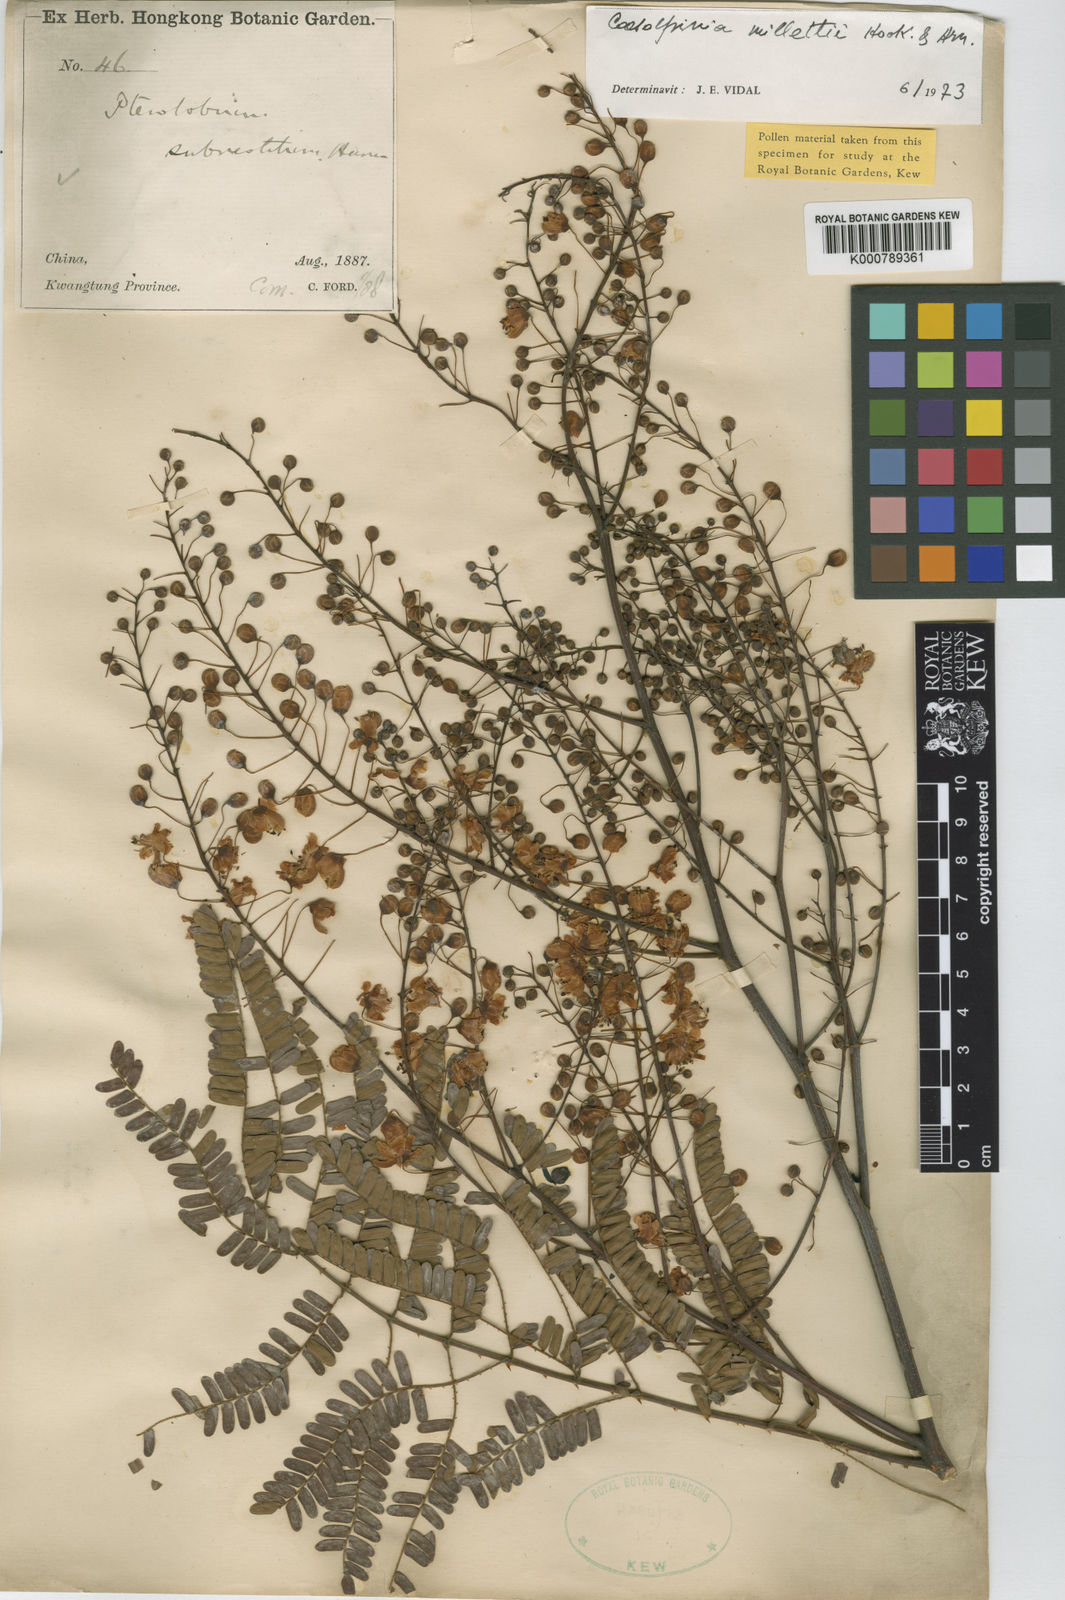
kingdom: Plantae
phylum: Tracheophyta
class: Magnoliopsida
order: Fabales
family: Fabaceae
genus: Biancaea
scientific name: Biancaea millettii
